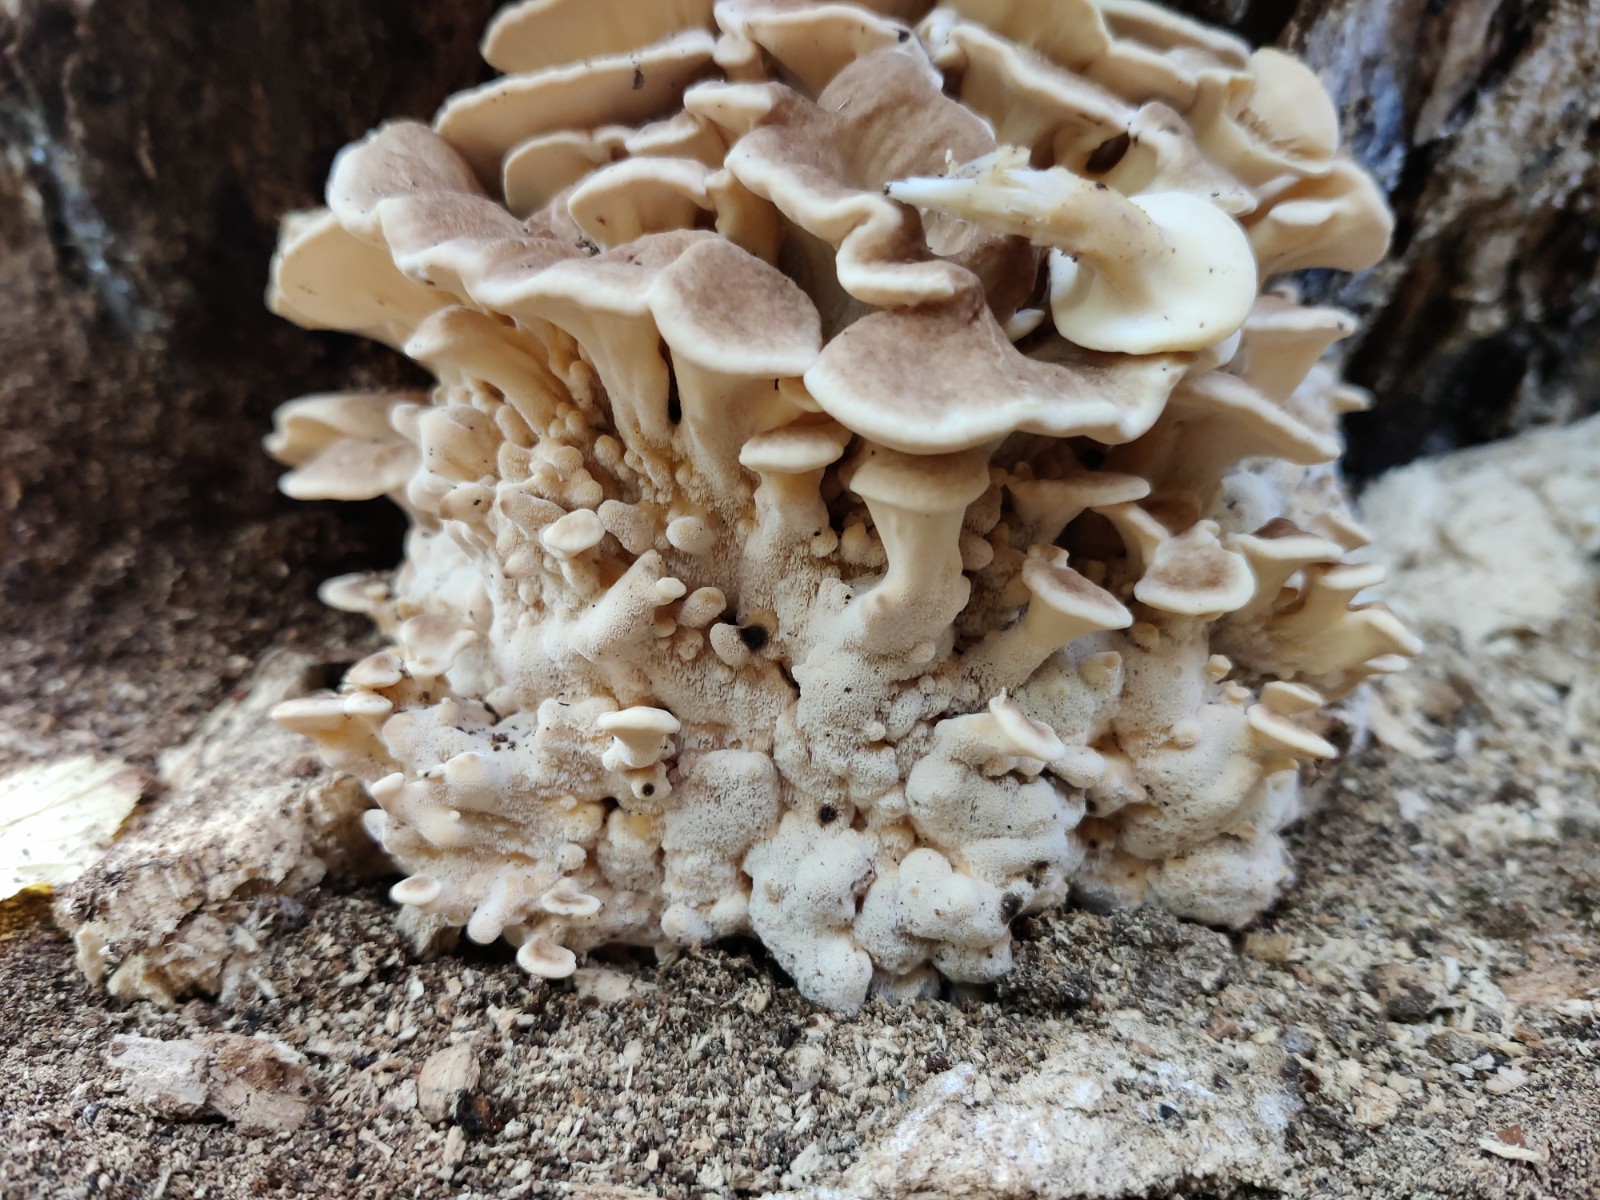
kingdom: Fungi
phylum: Basidiomycota
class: Agaricomycetes
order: Polyporales
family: Meripilaceae
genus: Meripilus
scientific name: Meripilus giganteus
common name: kæmpeporesvamp
